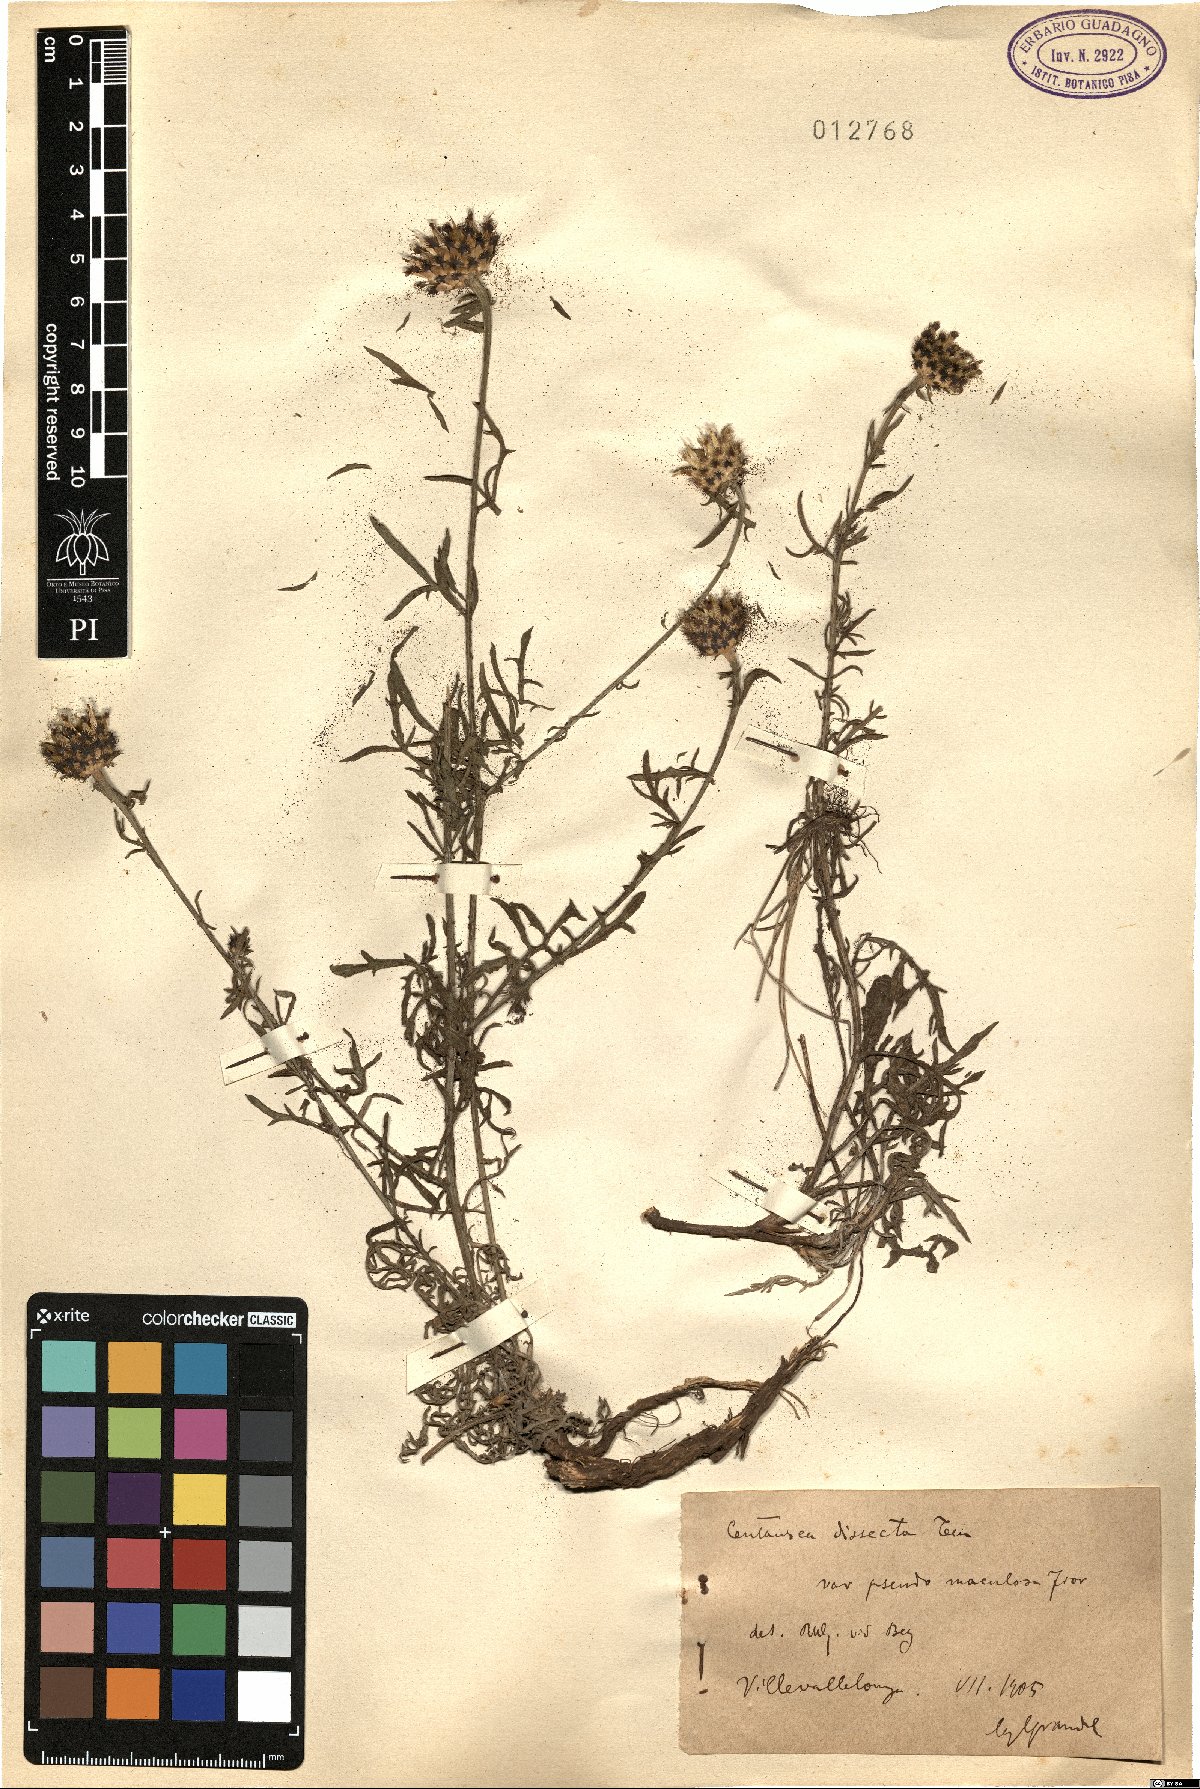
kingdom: Plantae
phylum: Tracheophyta
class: Magnoliopsida
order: Asterales
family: Asteraceae
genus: Centaurea
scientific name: Centaurea tenorei
